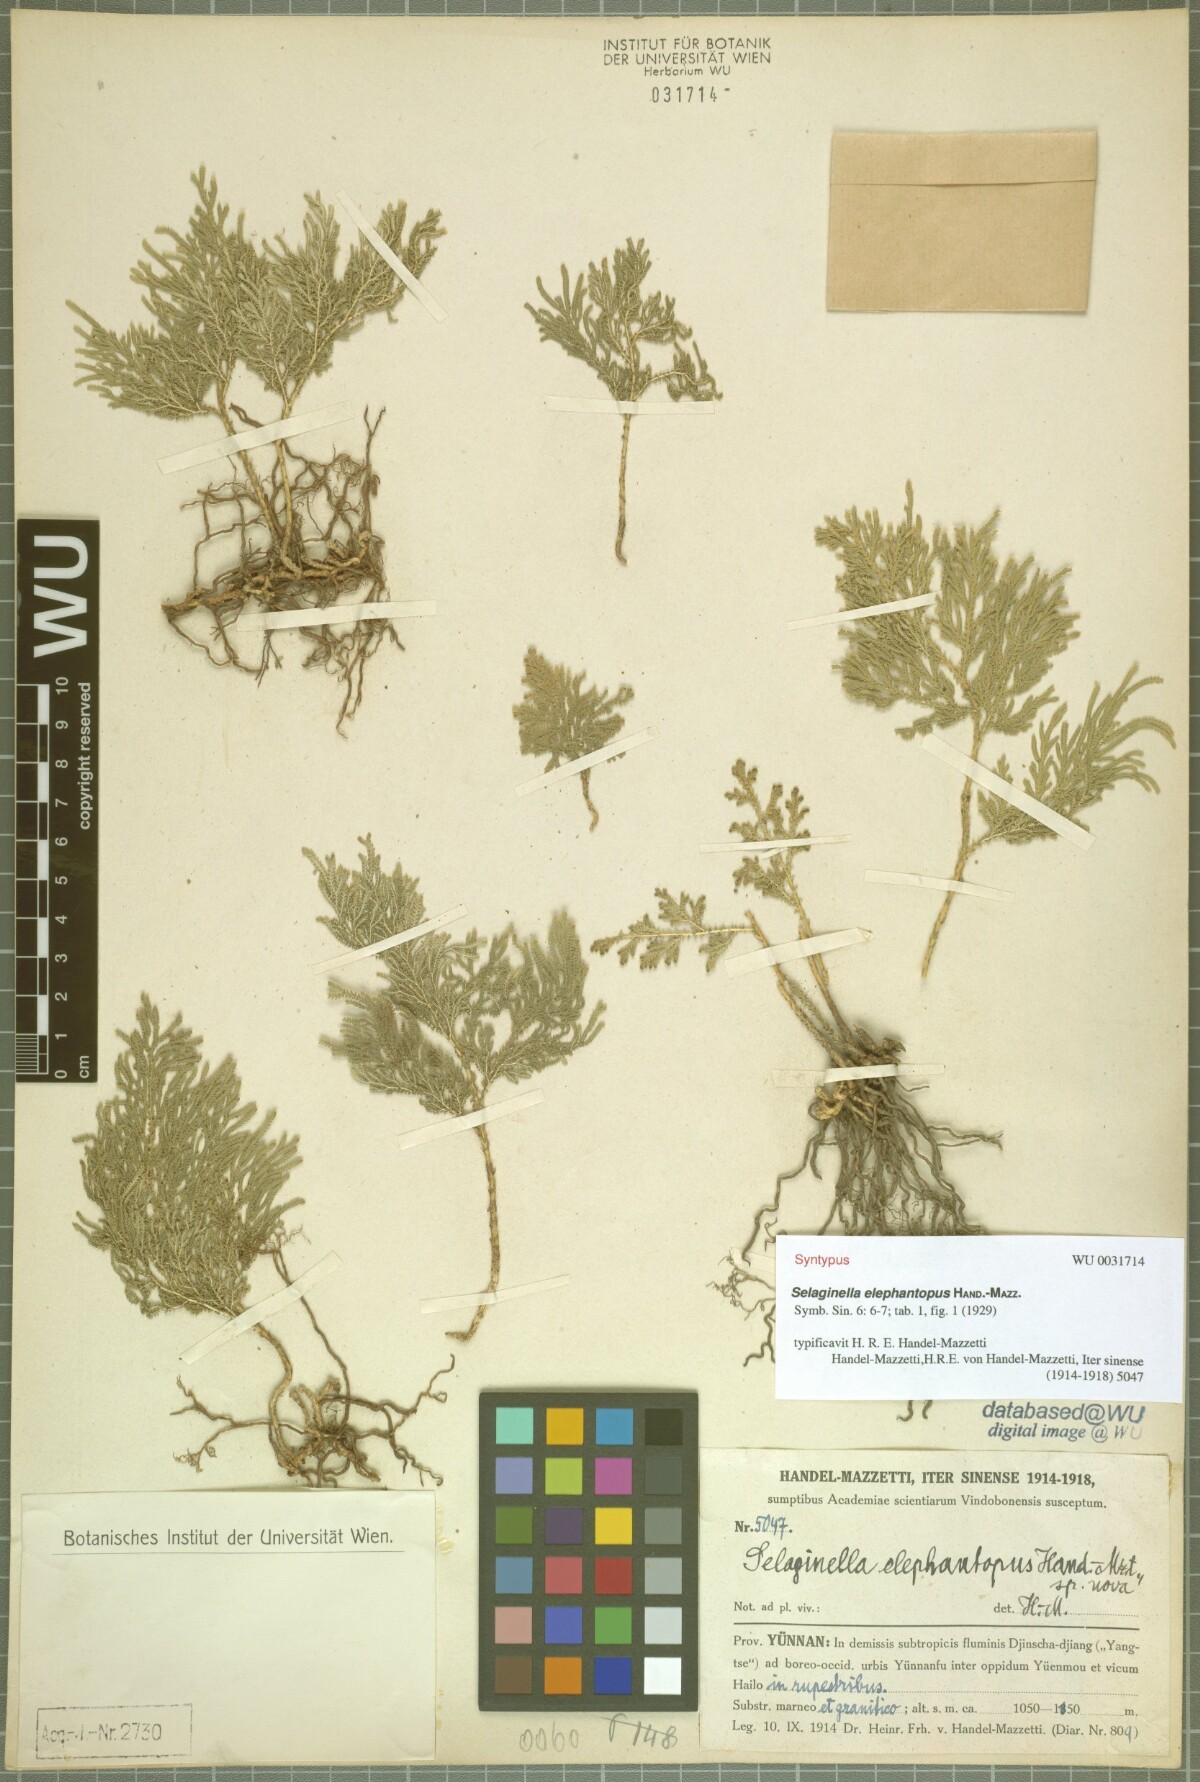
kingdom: Plantae
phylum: Tracheophyta
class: Lycopodiopsida
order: Selaginellales
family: Selaginellaceae
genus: Selaginella
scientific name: Selaginella mairei
